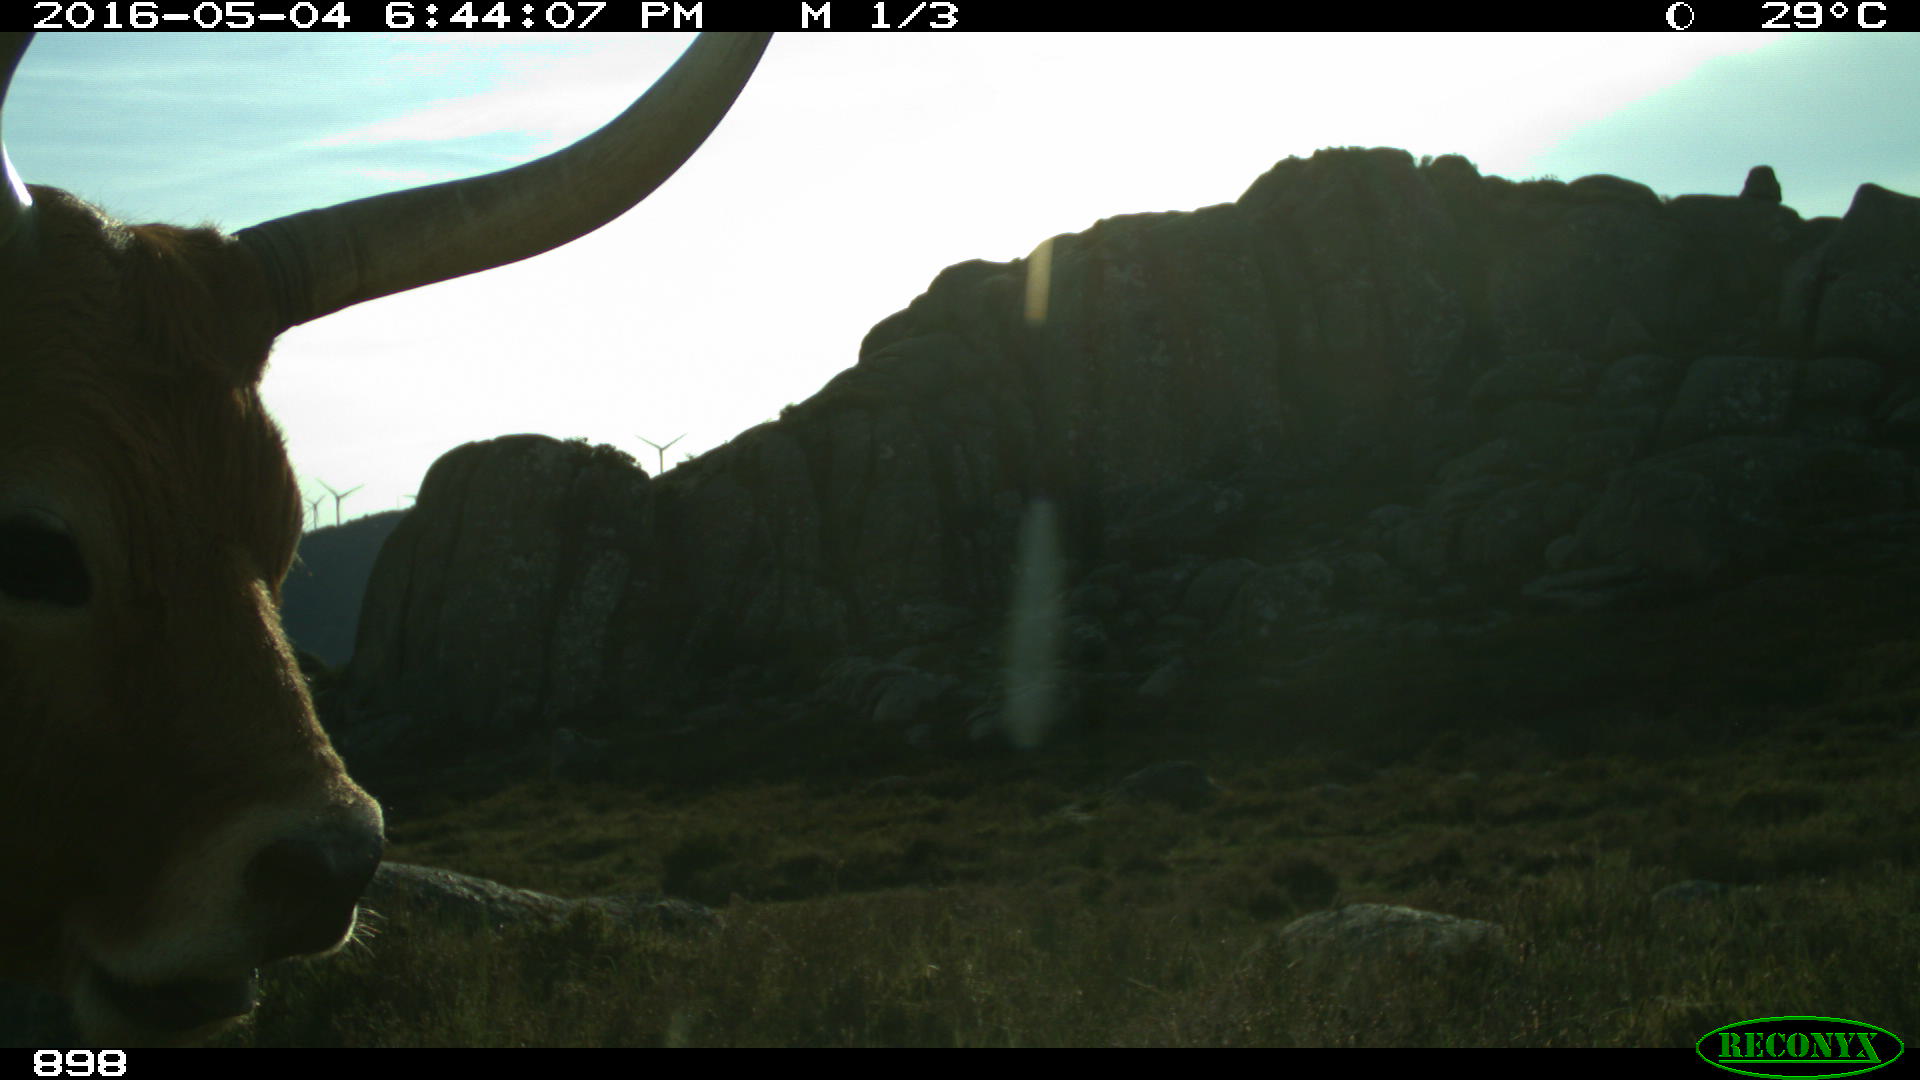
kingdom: Animalia
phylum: Chordata
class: Mammalia
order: Artiodactyla
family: Bovidae
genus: Bos
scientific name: Bos taurus
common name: Domesticated cattle
